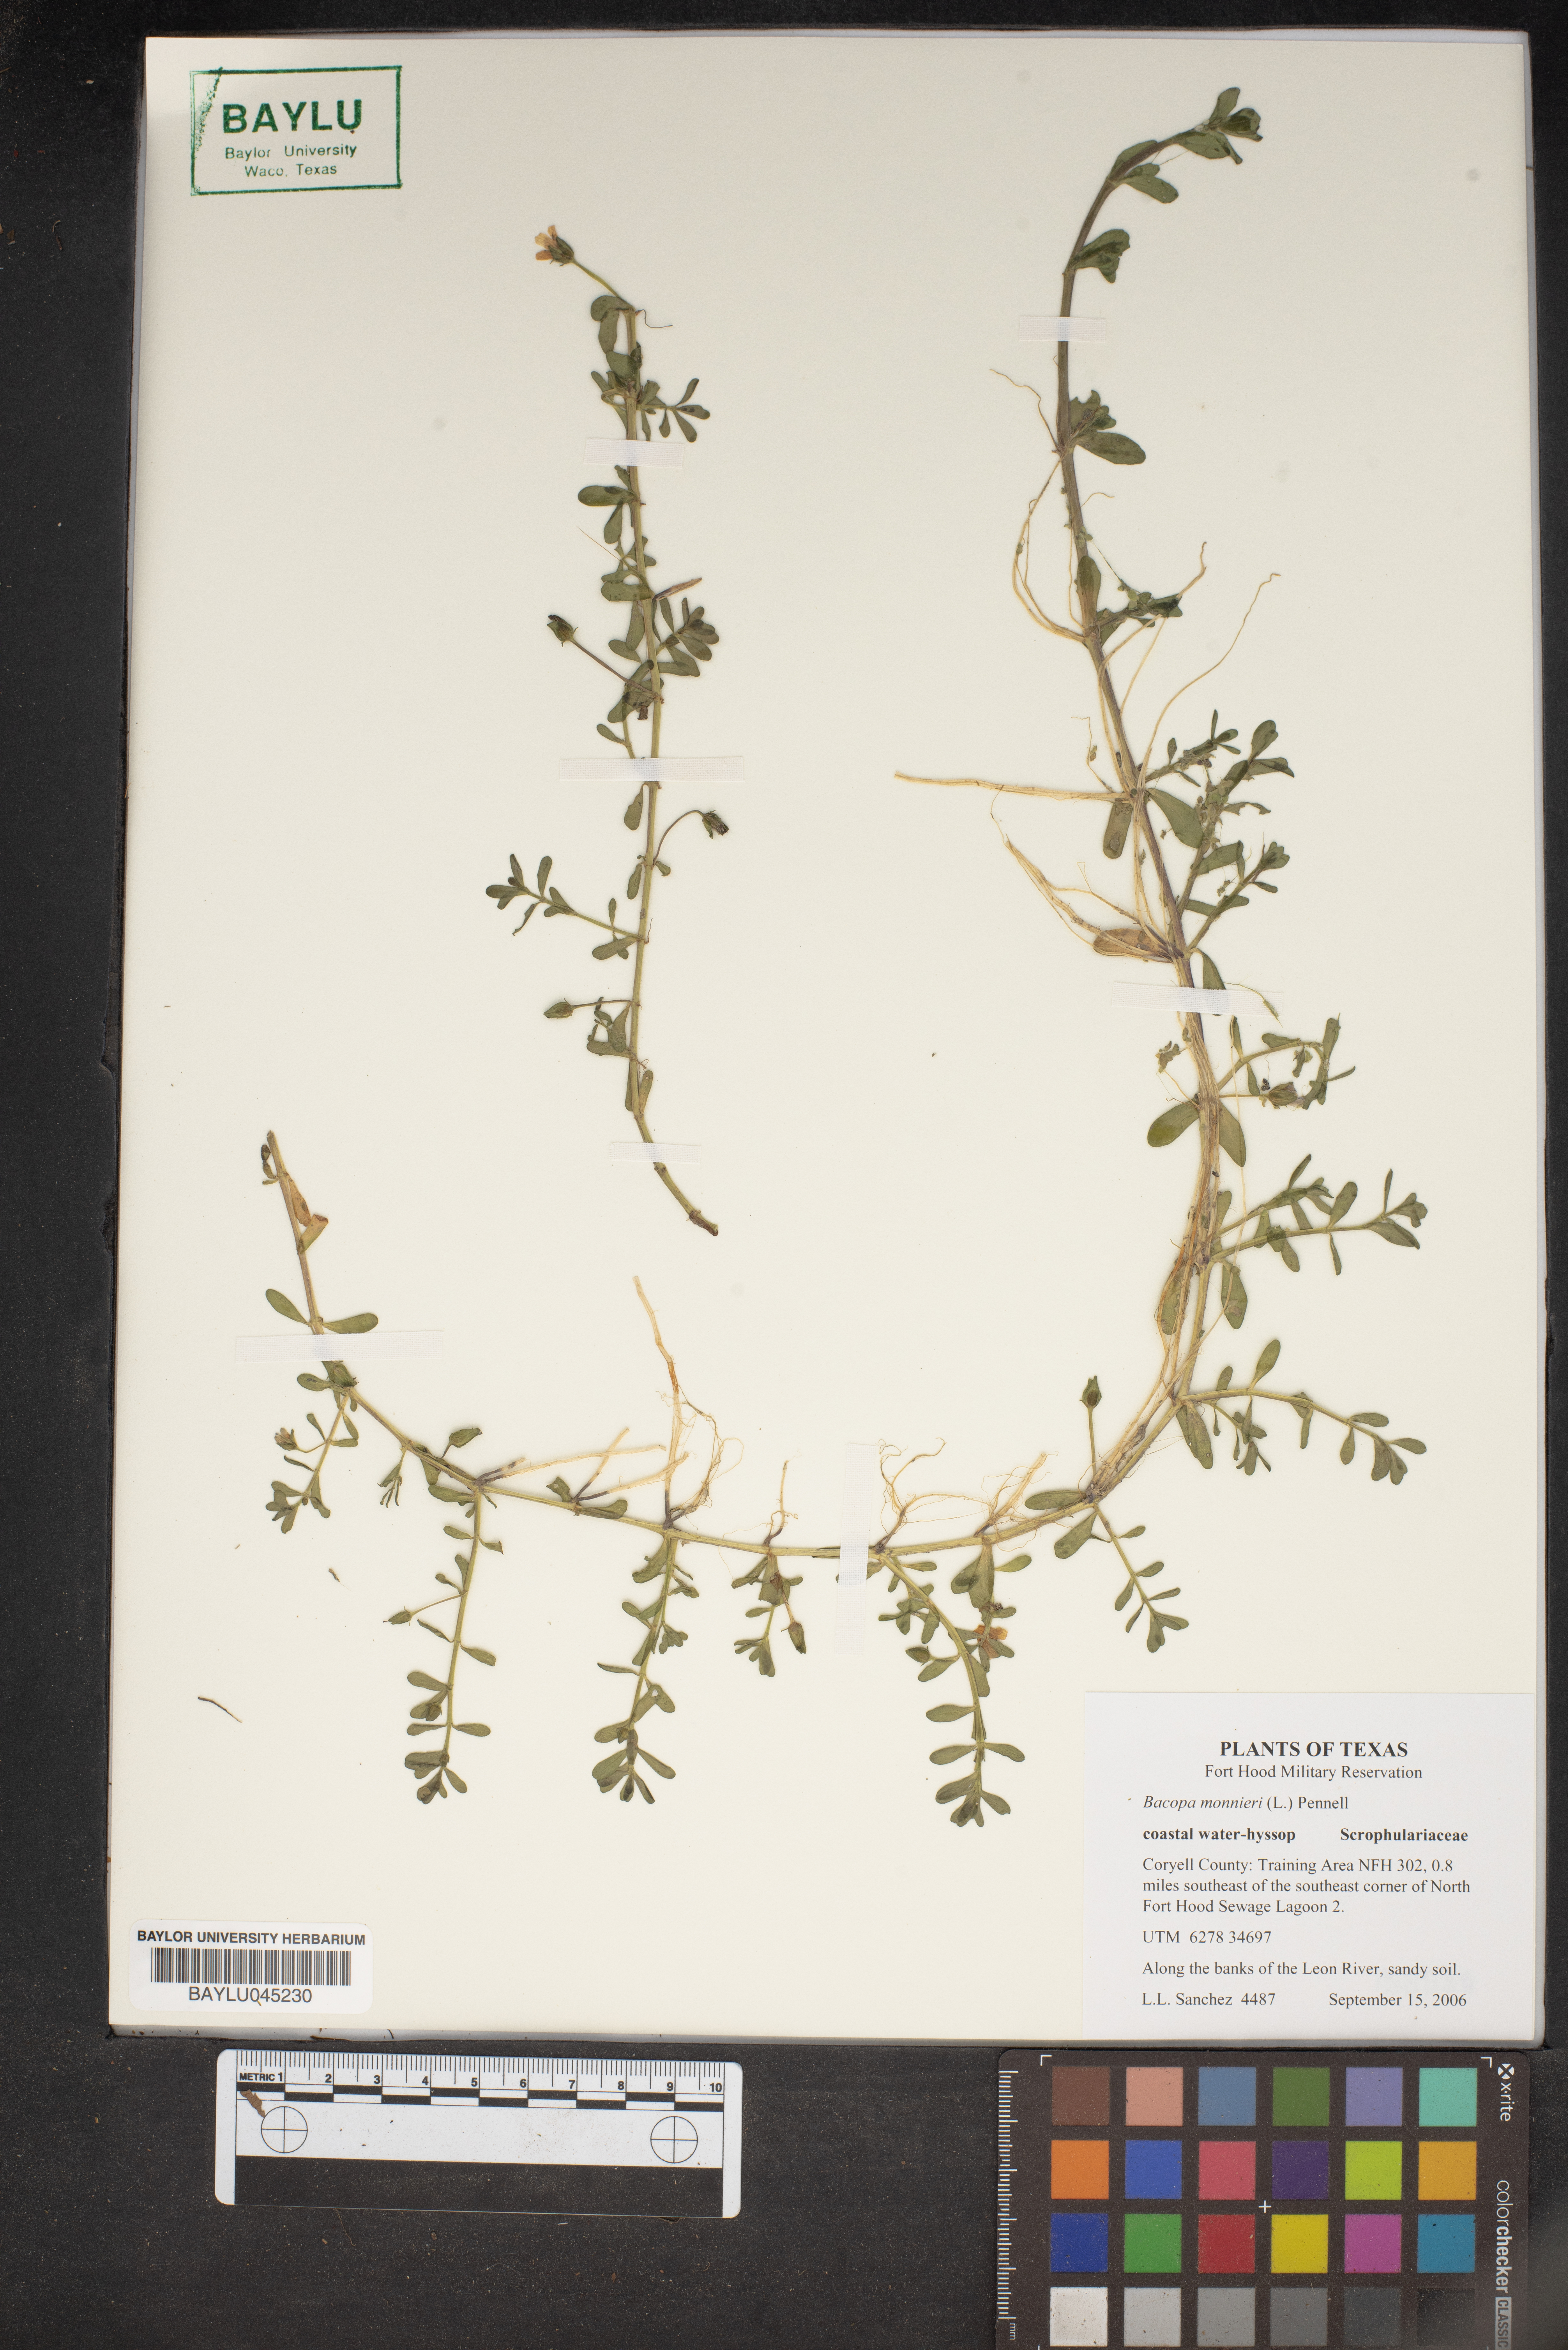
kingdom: Plantae
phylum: Tracheophyta
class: Magnoliopsida
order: Lamiales
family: Plantaginaceae
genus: Bacopa
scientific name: Bacopa monnieri
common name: Indian-pennywort
